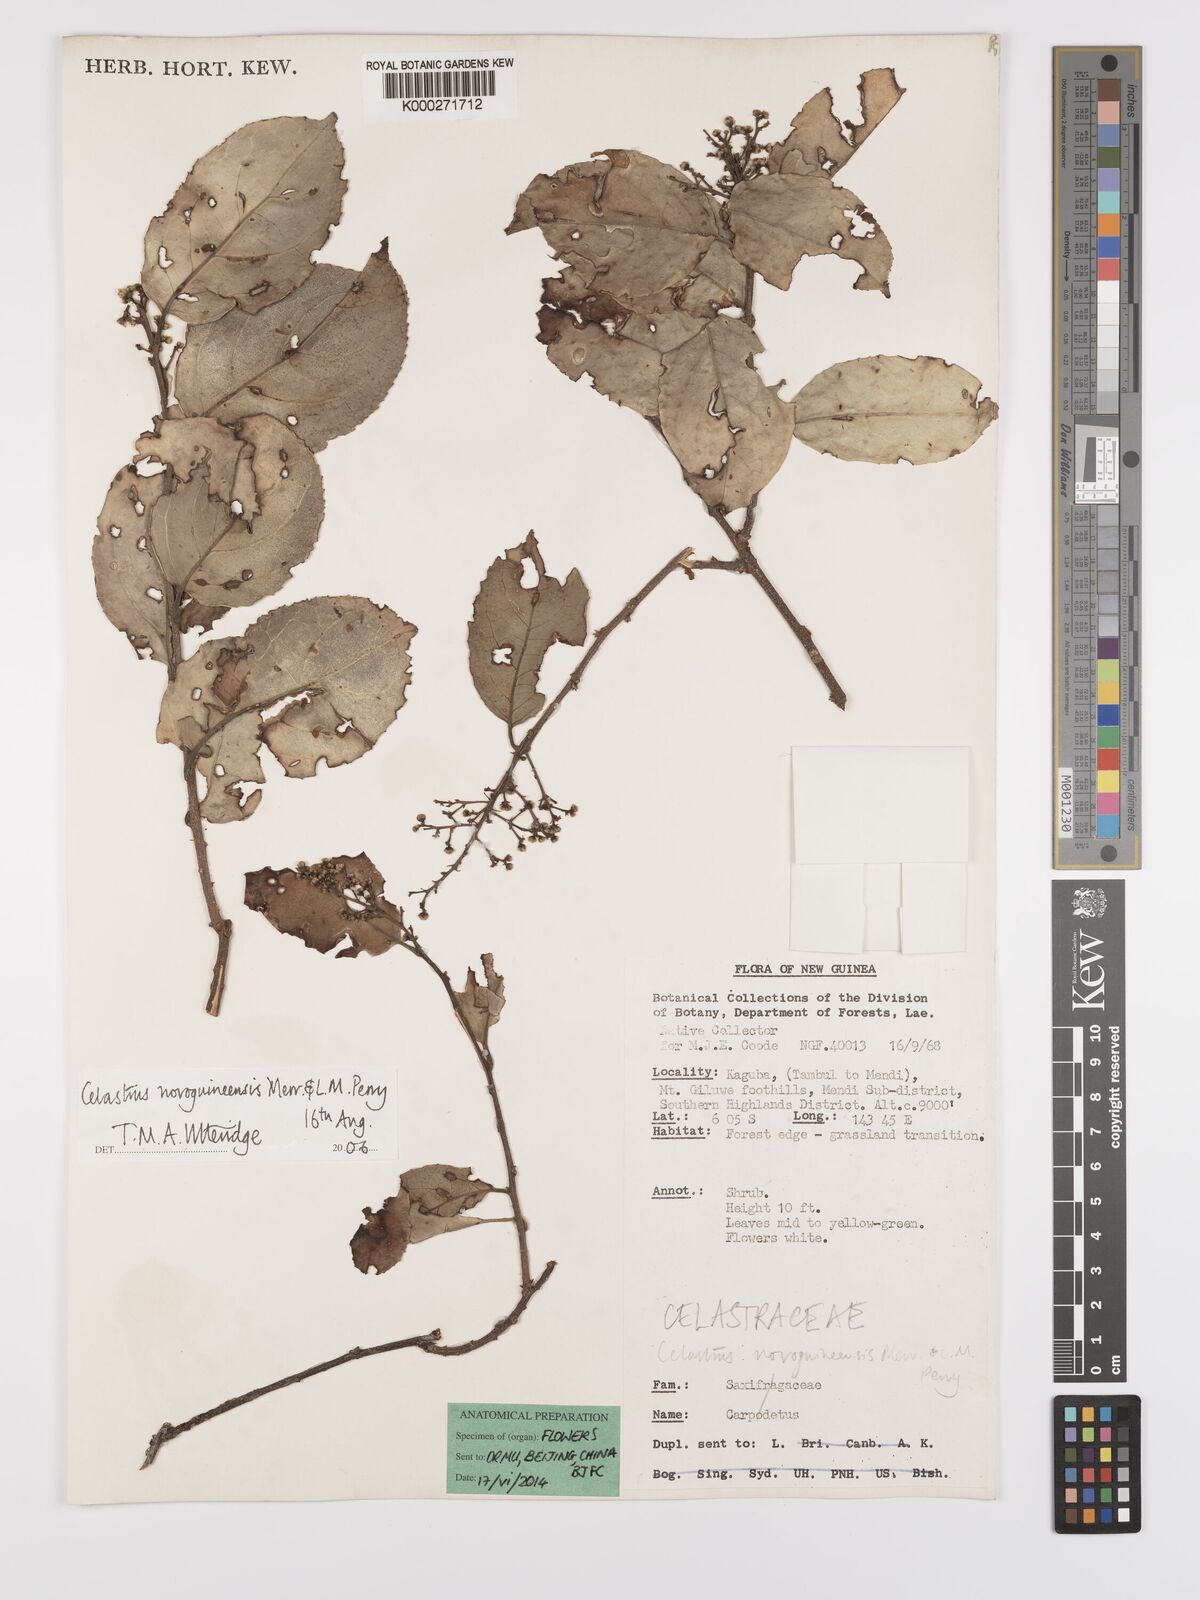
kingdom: Plantae
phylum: Tracheophyta
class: Magnoliopsida
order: Celastrales
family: Celastraceae
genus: Celastrus
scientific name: Celastrus novoguineensis
